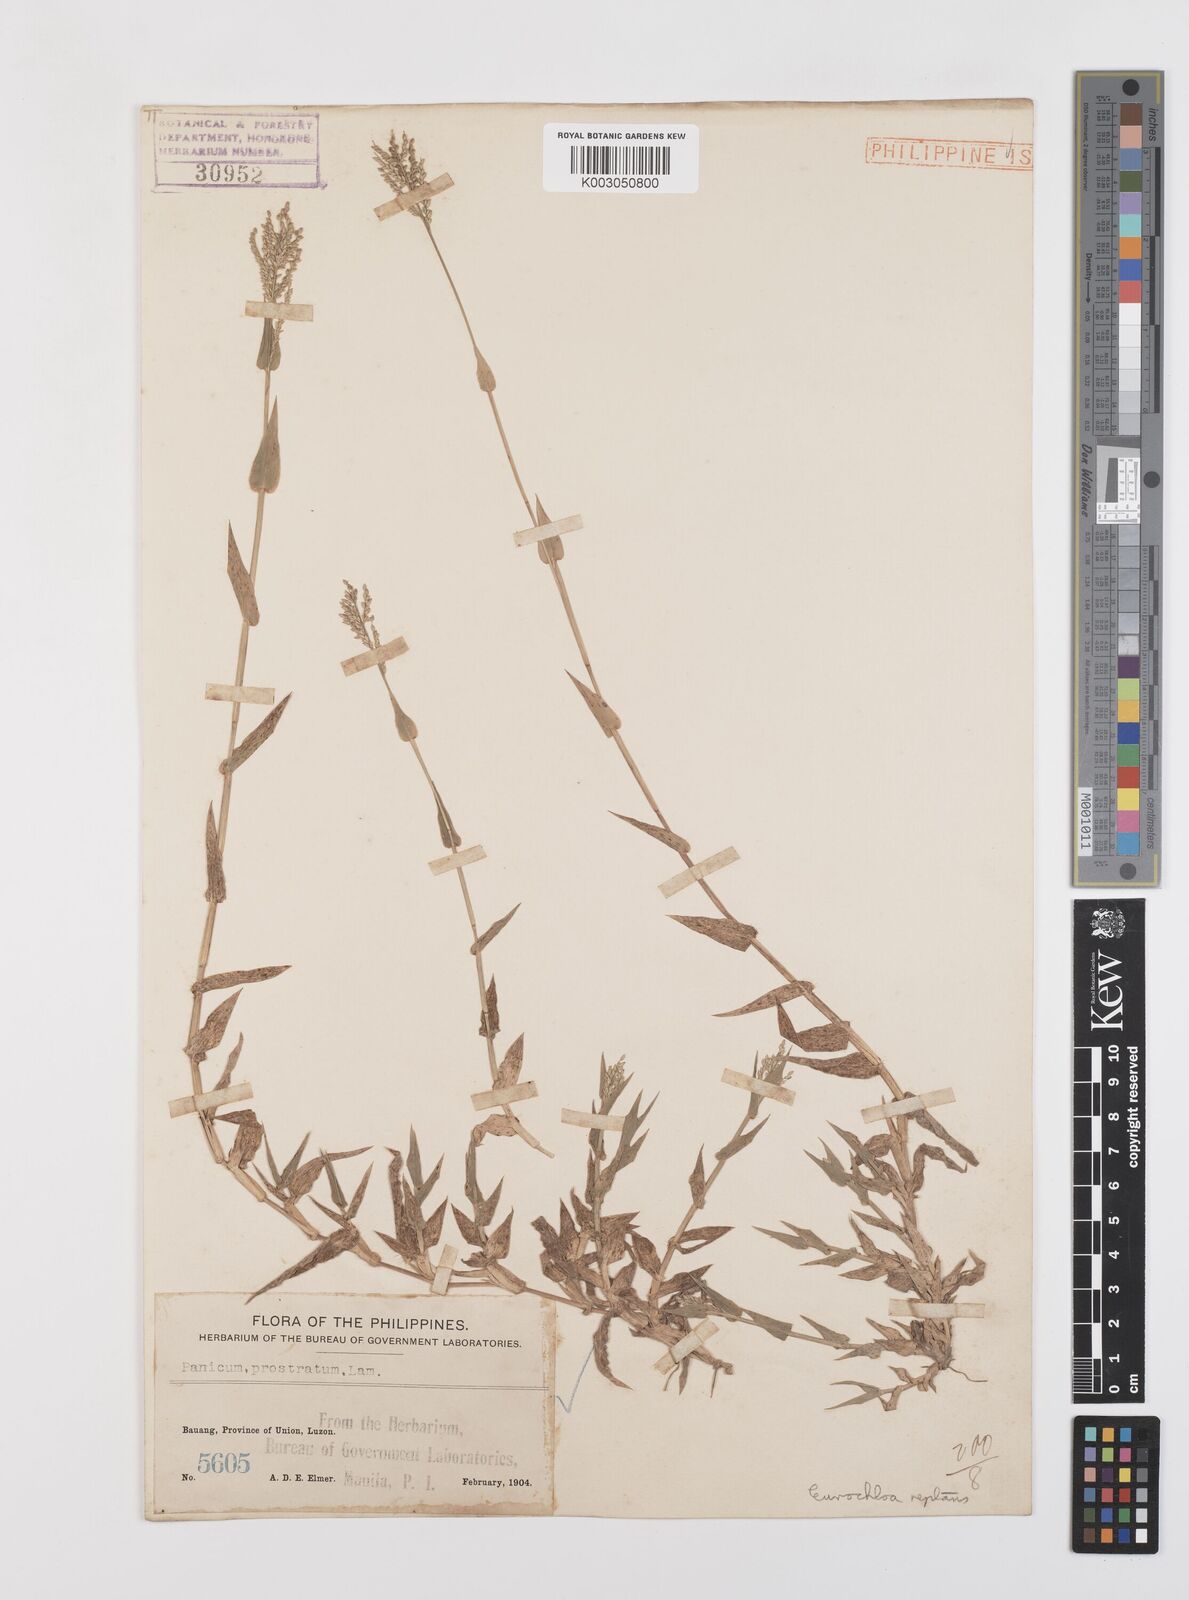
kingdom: Plantae
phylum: Tracheophyta
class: Liliopsida
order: Poales
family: Poaceae
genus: Urochloa
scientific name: Urochloa reptans
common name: Sprawling signalgrass
